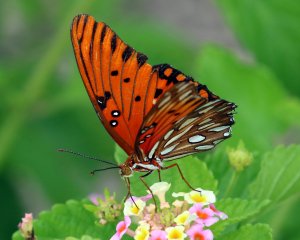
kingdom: Animalia
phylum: Arthropoda
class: Insecta
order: Lepidoptera
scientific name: Lepidoptera
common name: Butterflies
